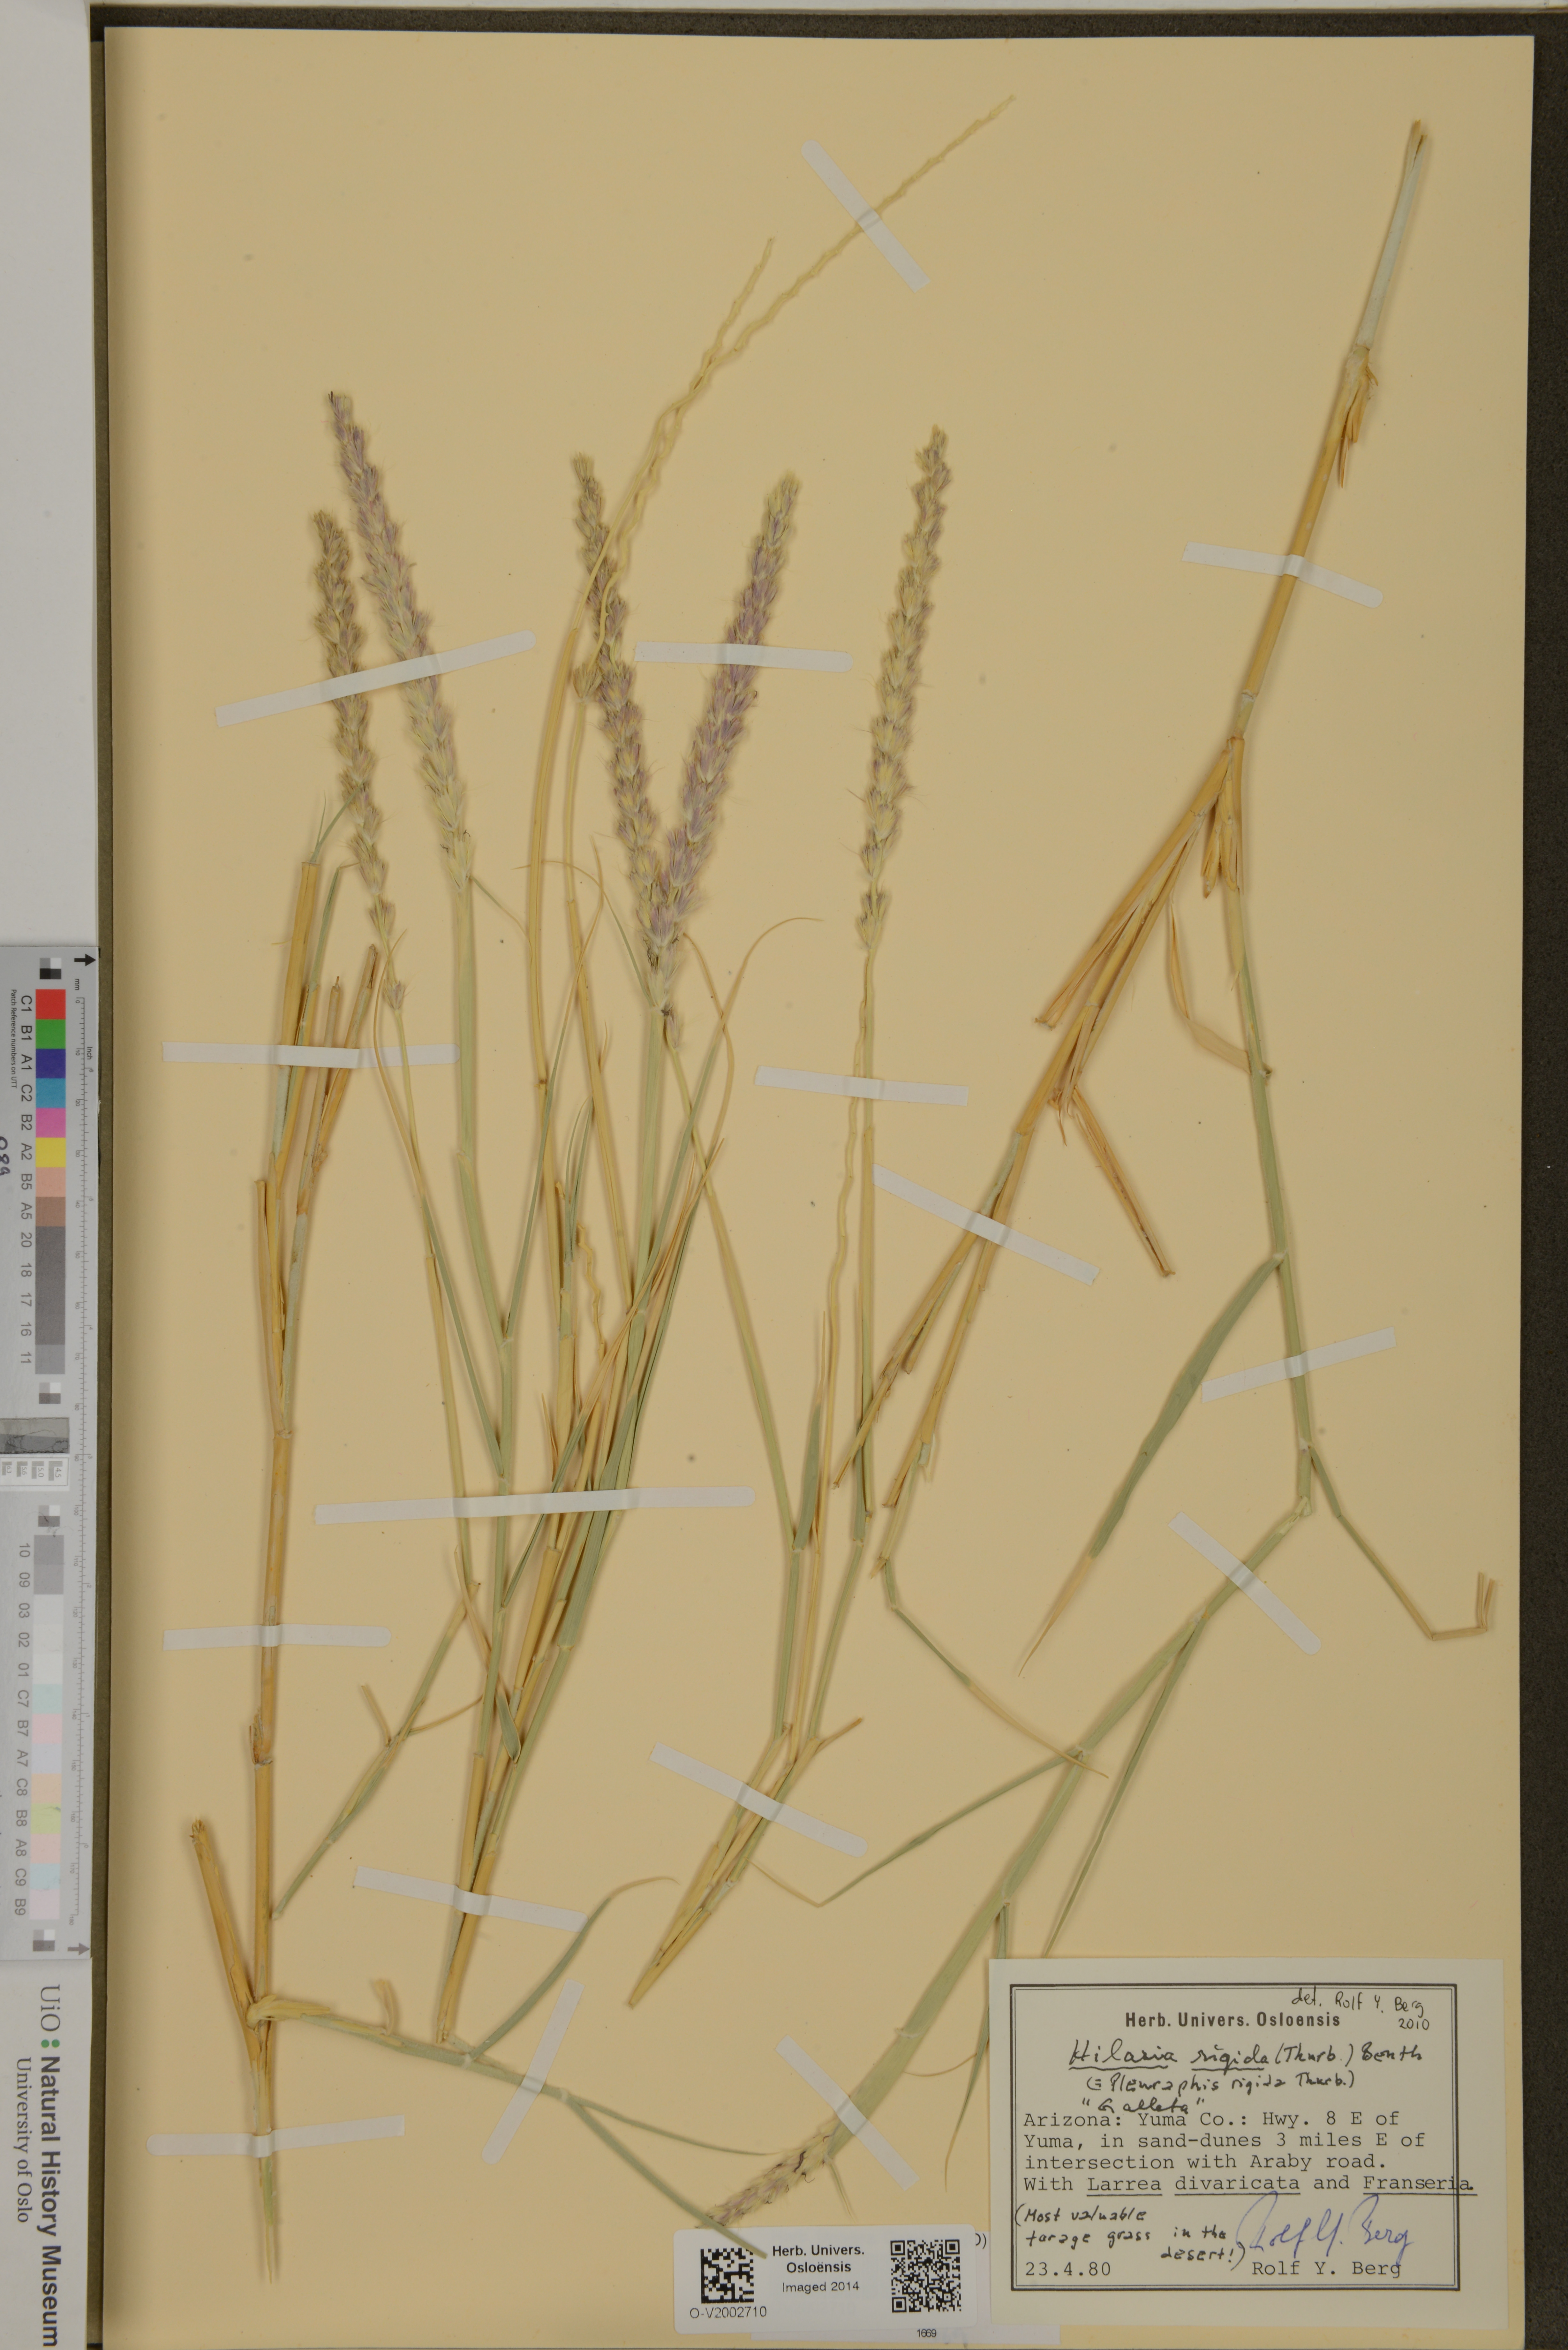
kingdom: Plantae
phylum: Tracheophyta
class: Liliopsida
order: Poales
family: Poaceae
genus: Hilaria
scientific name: Hilaria rigida
